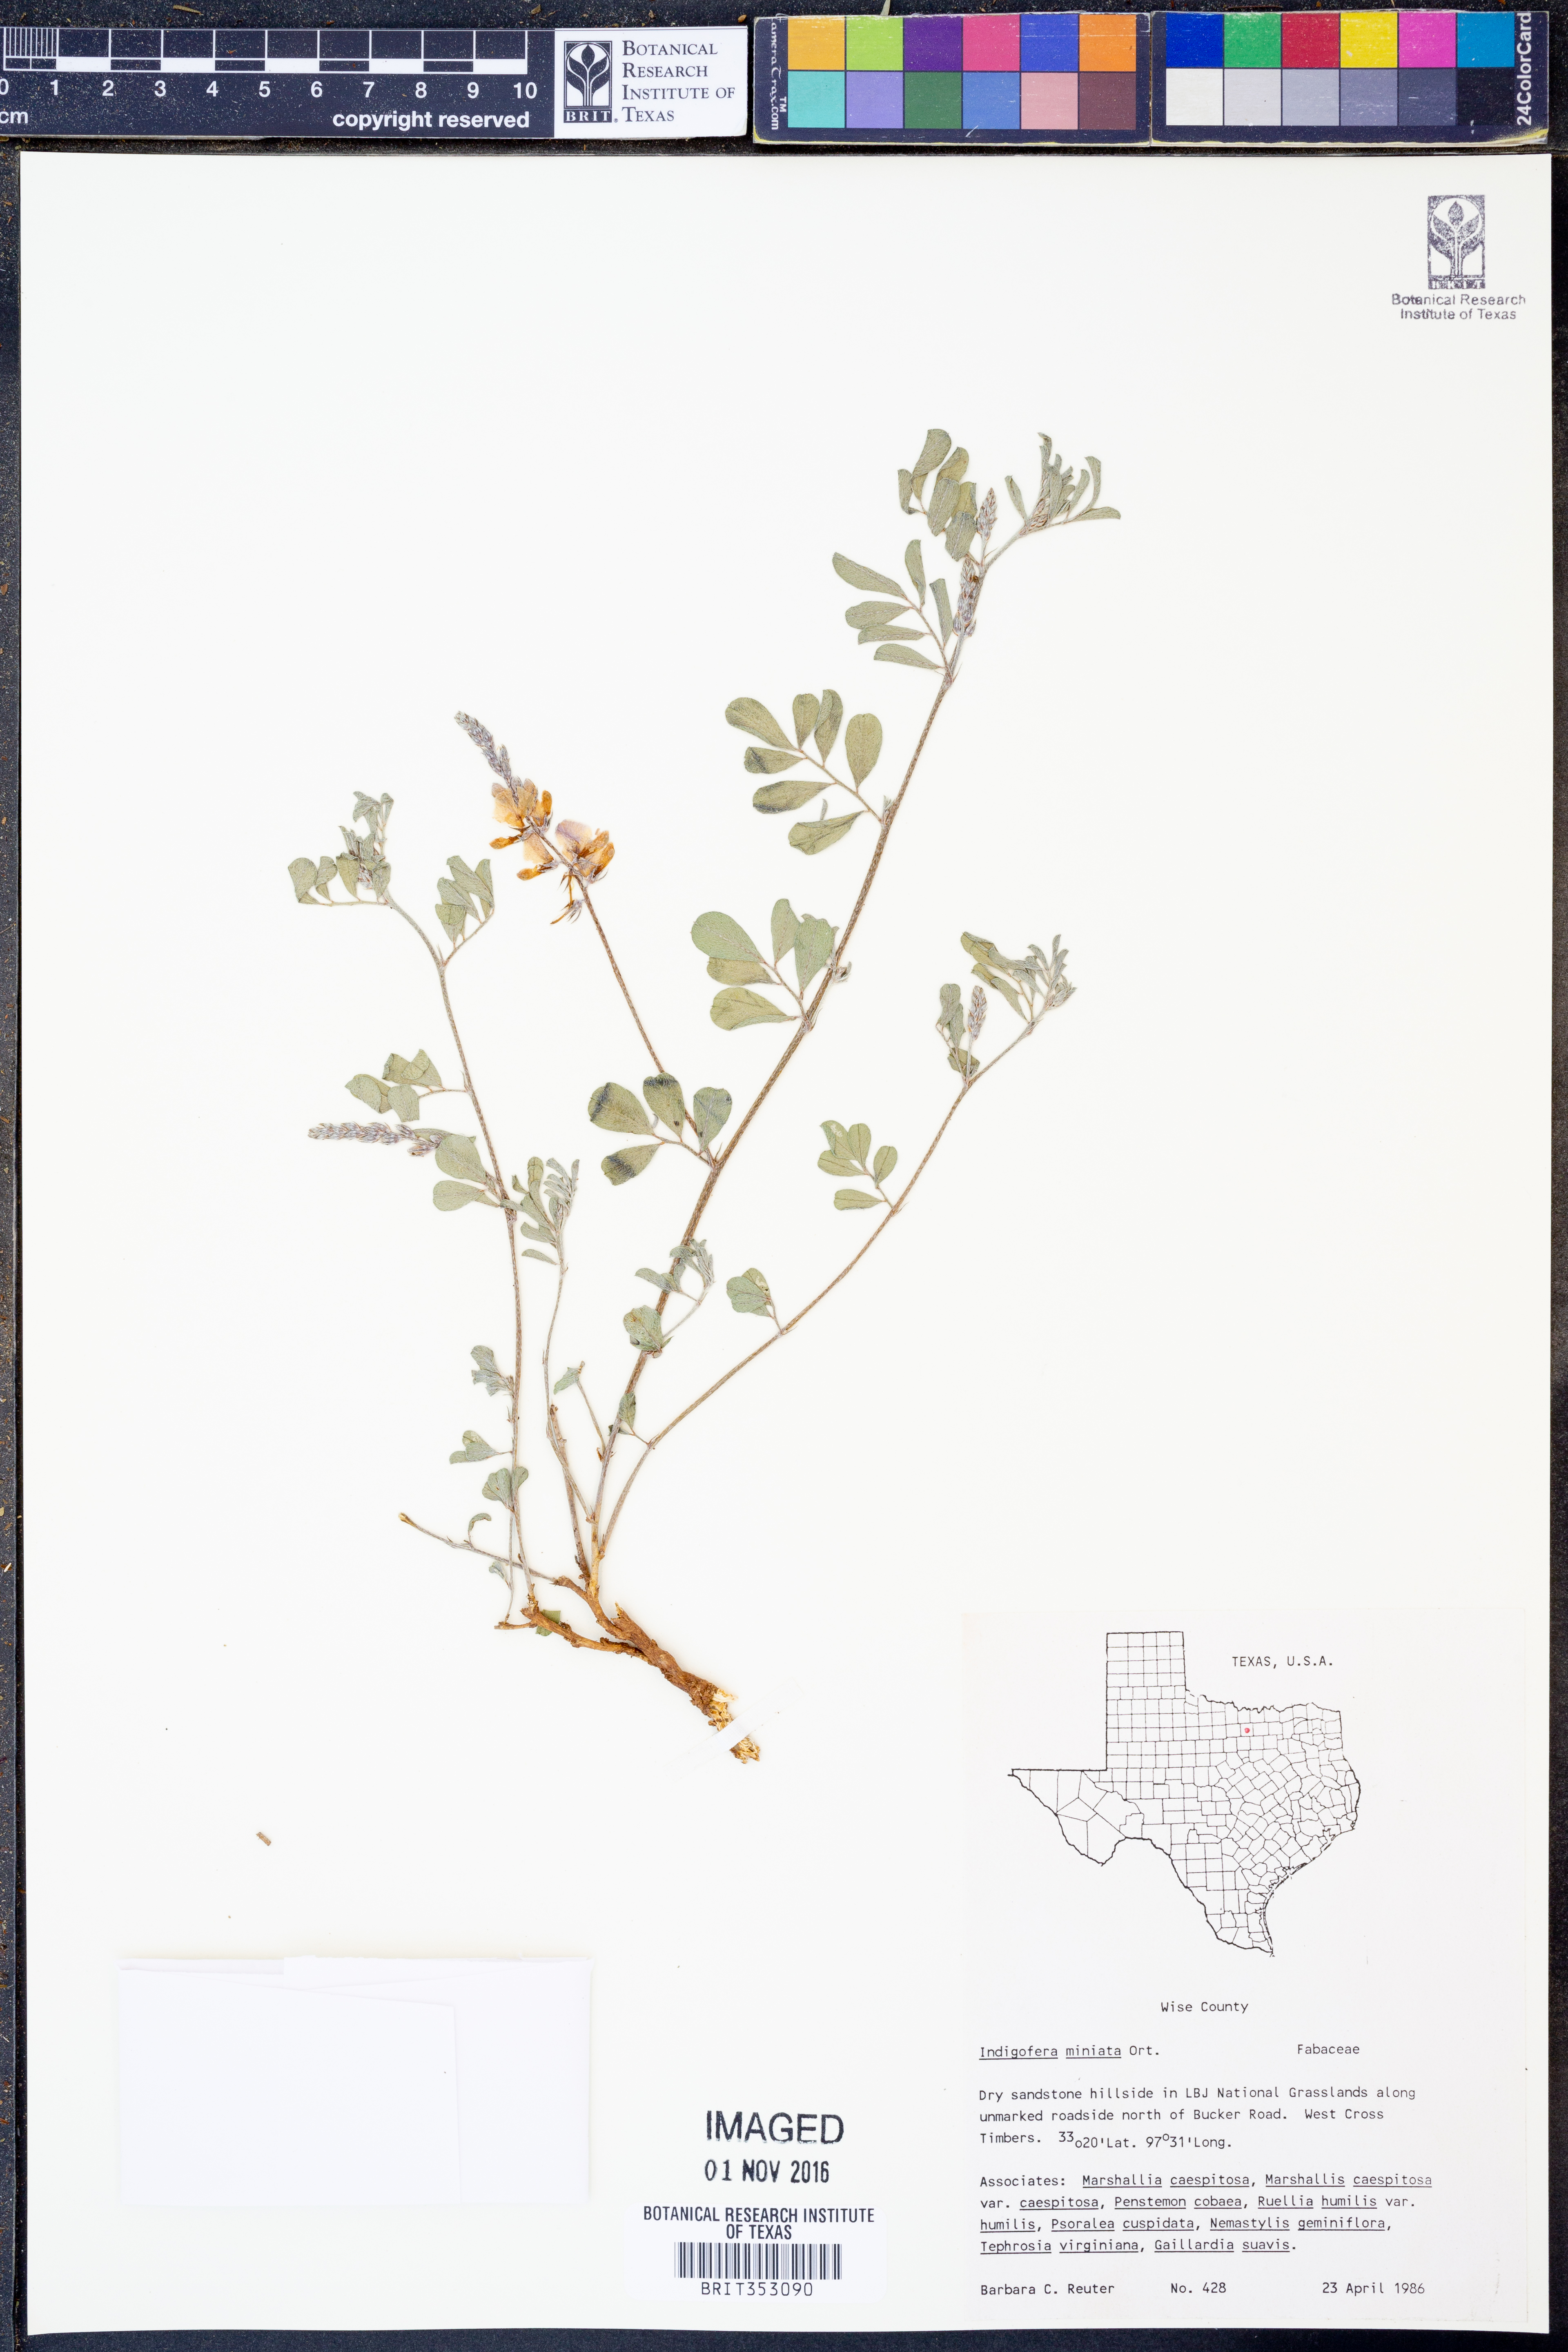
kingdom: Plantae
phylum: Tracheophyta
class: Magnoliopsida
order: Fabales
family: Fabaceae
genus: Indigofera
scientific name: Indigofera miniata
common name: Coast indigo
